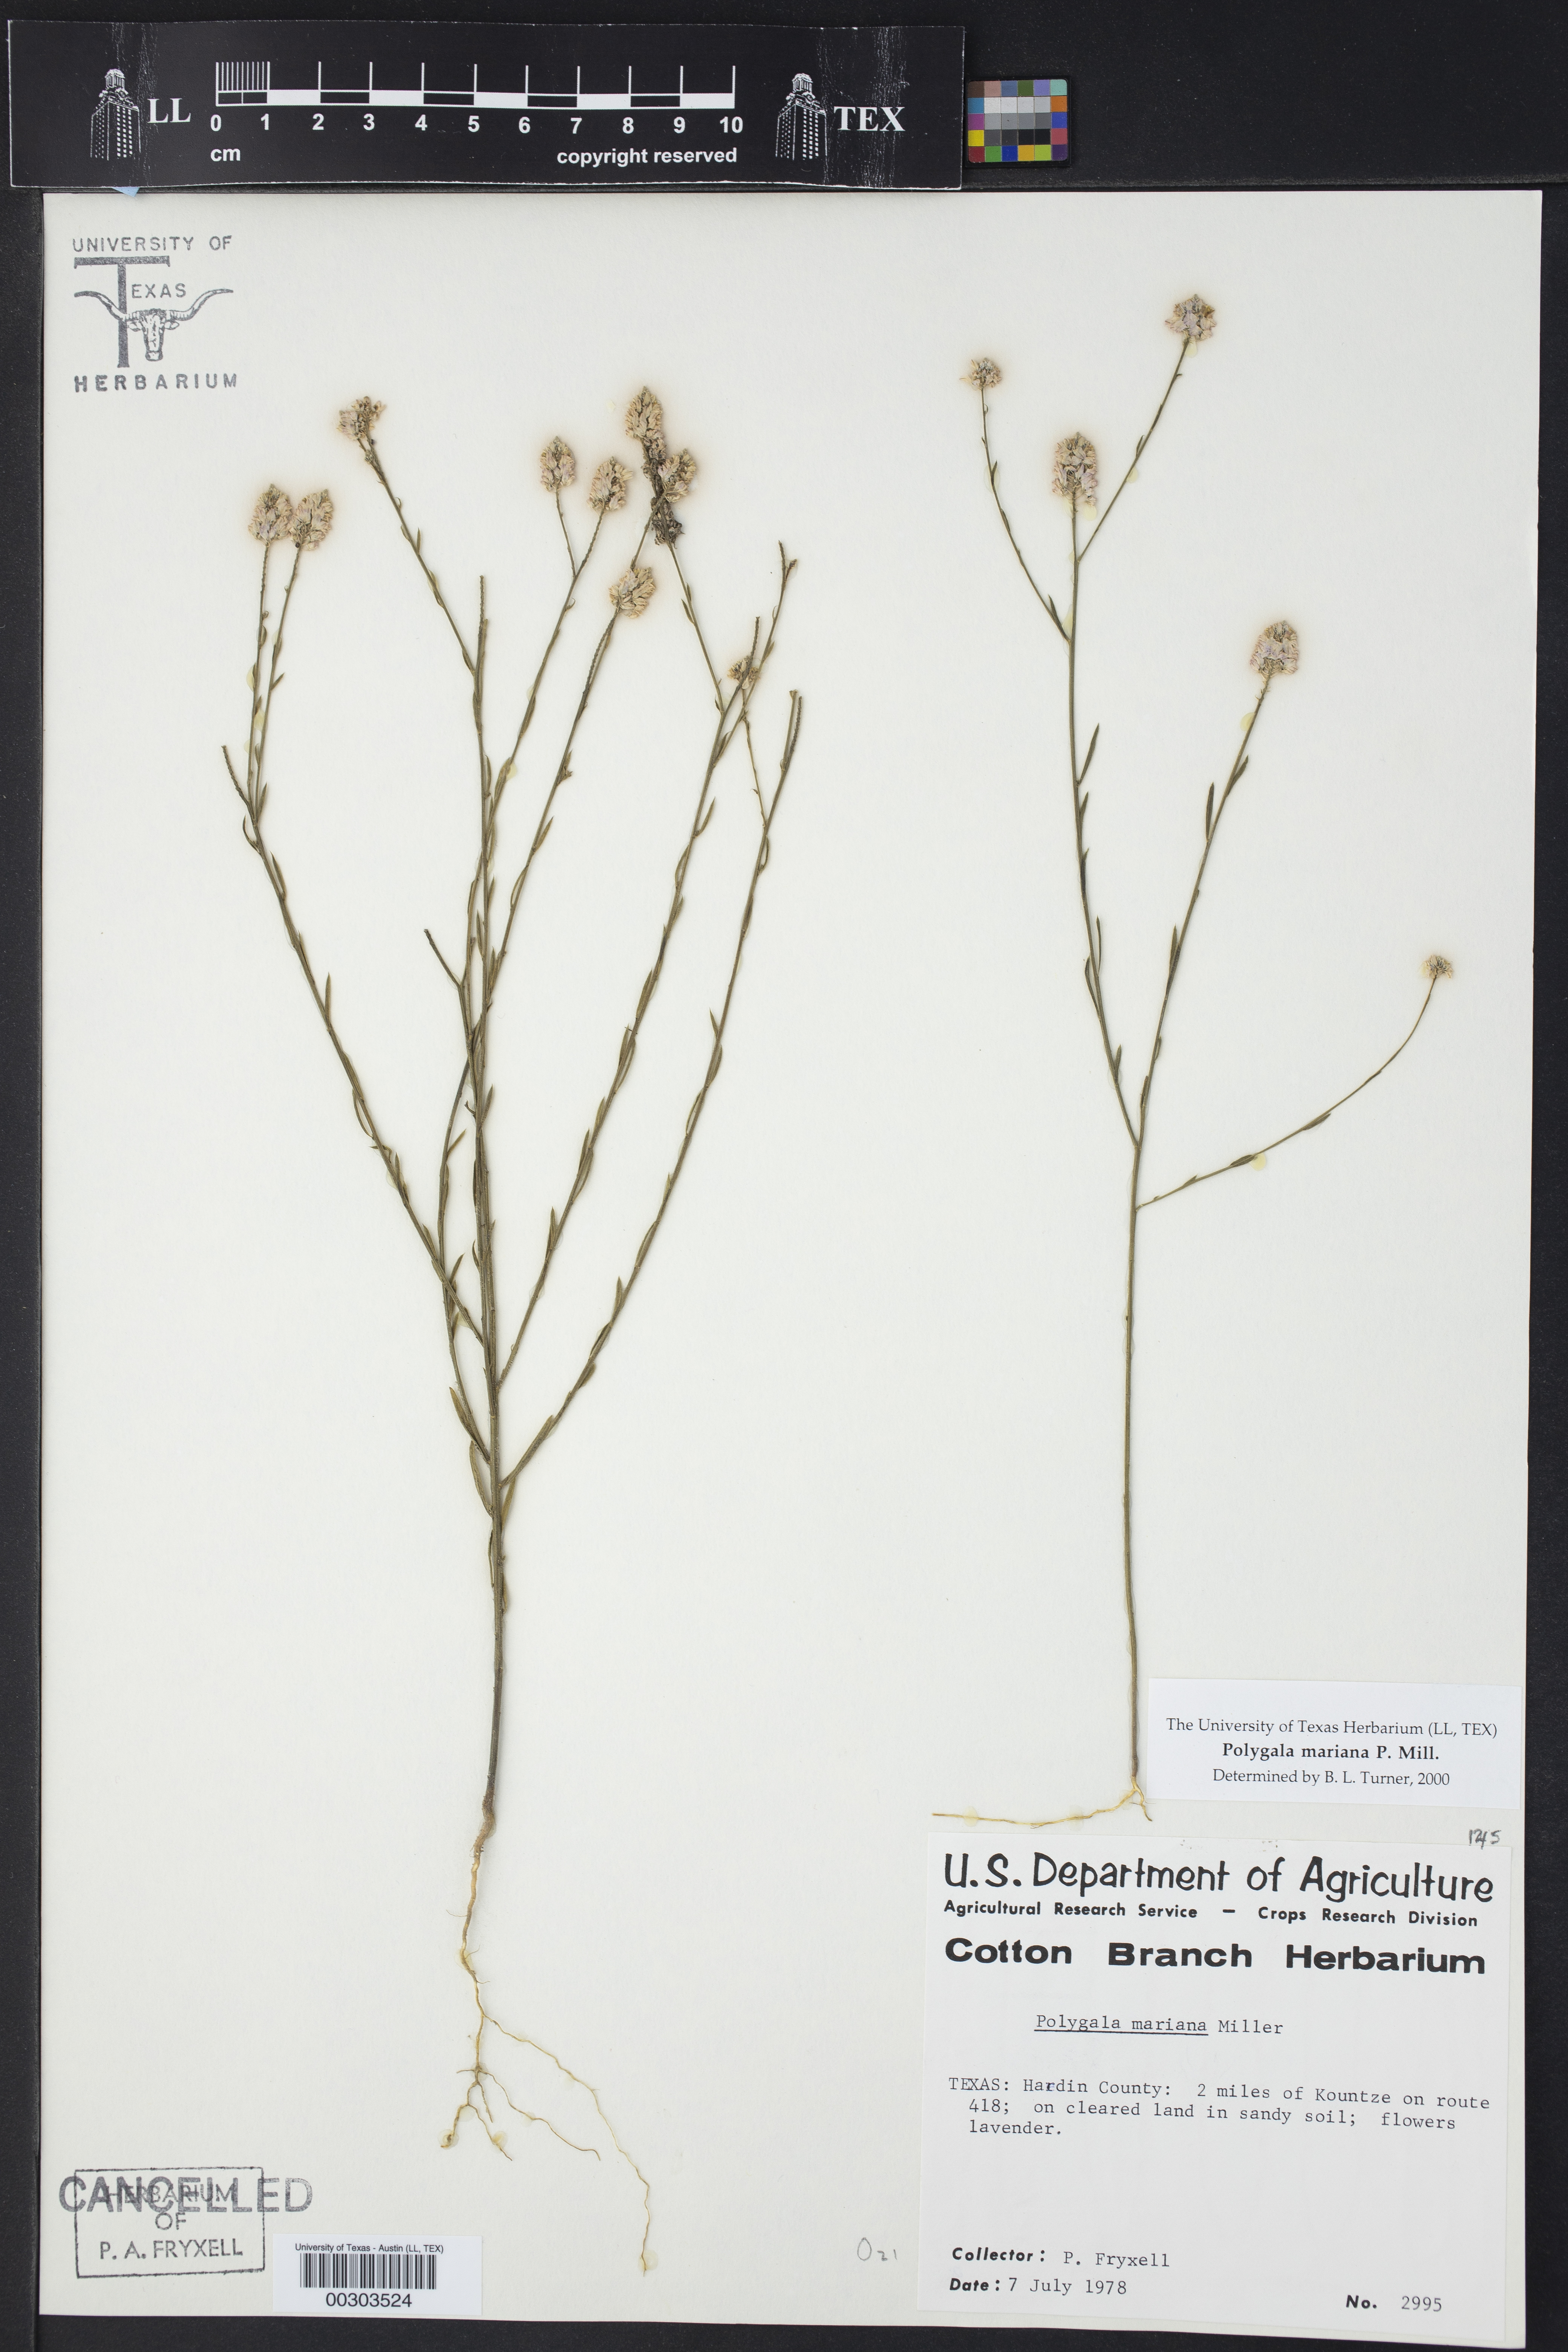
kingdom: Plantae
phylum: Tracheophyta
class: Magnoliopsida
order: Fabales
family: Polygalaceae
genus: Polygala
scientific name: Polygala mariana
